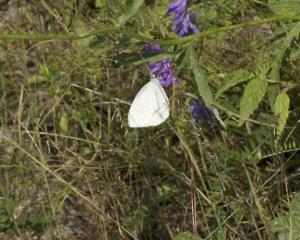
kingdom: Animalia
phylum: Arthropoda
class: Insecta
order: Lepidoptera
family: Pieridae
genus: Pieris
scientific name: Pieris rapae
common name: Cabbage White
